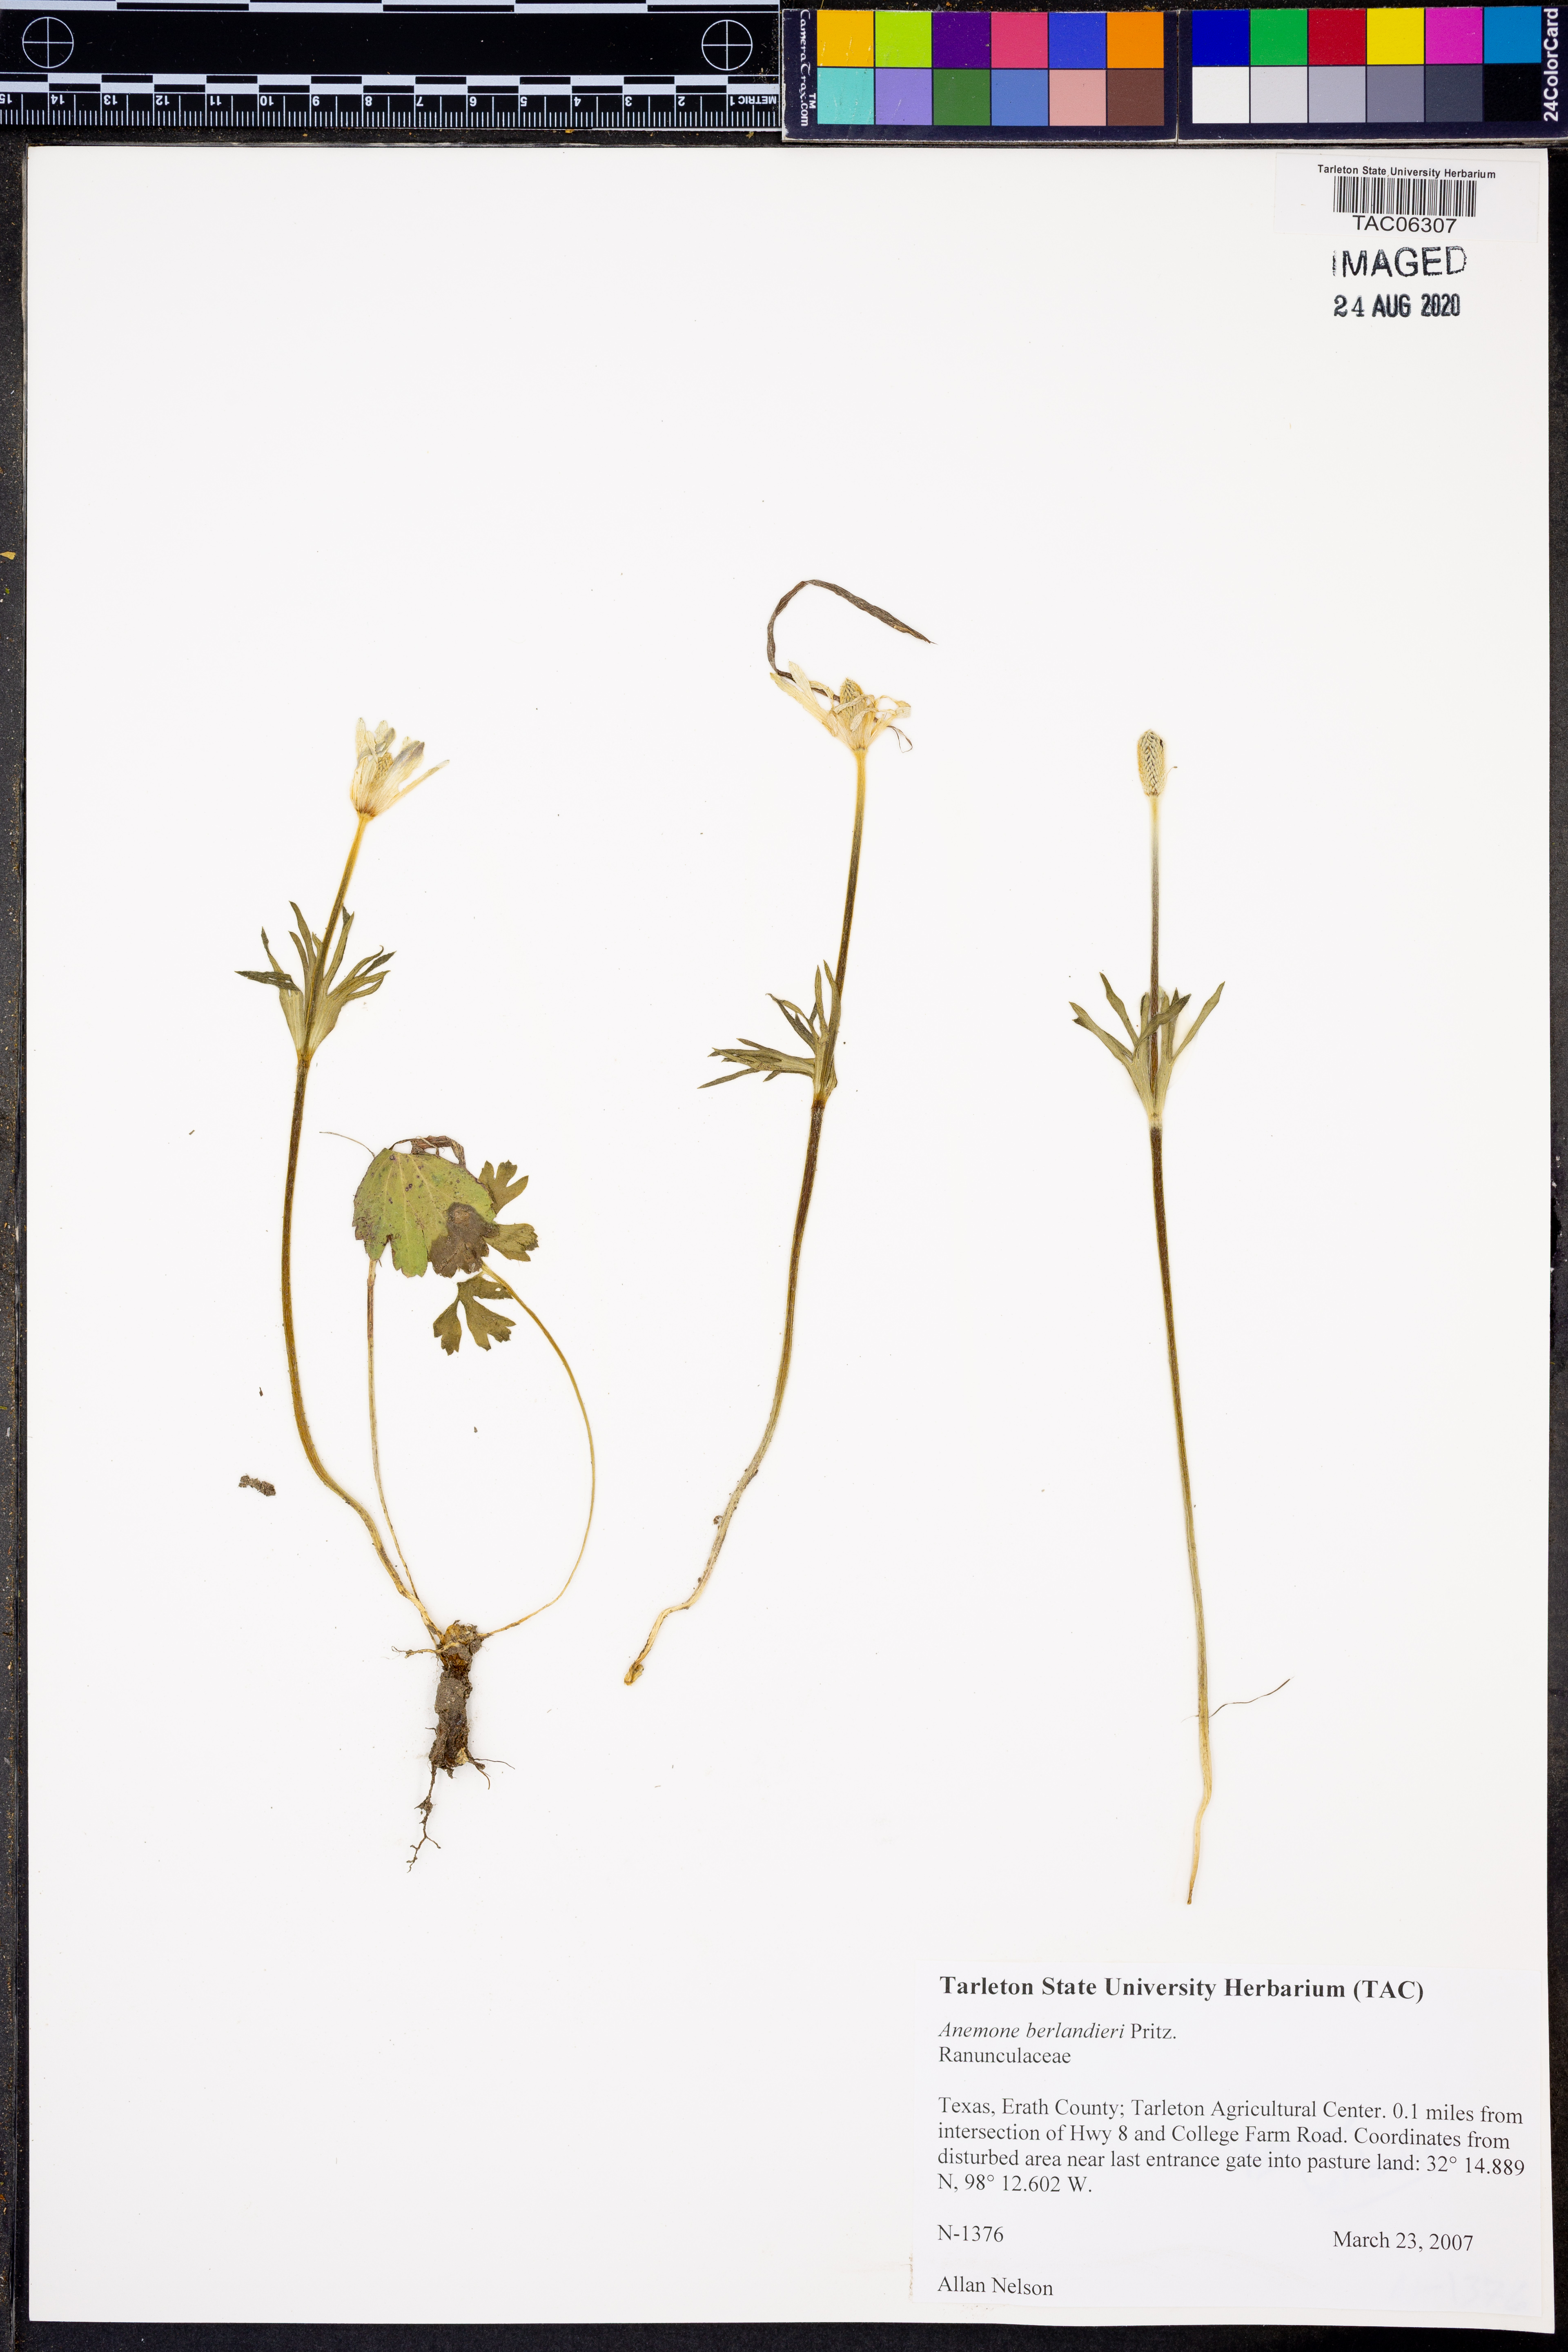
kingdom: Plantae
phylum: Tracheophyta
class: Magnoliopsida
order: Ranunculales
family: Ranunculaceae
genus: Anemone
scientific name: Anemone berlandieri
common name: Ten-petal anemone
